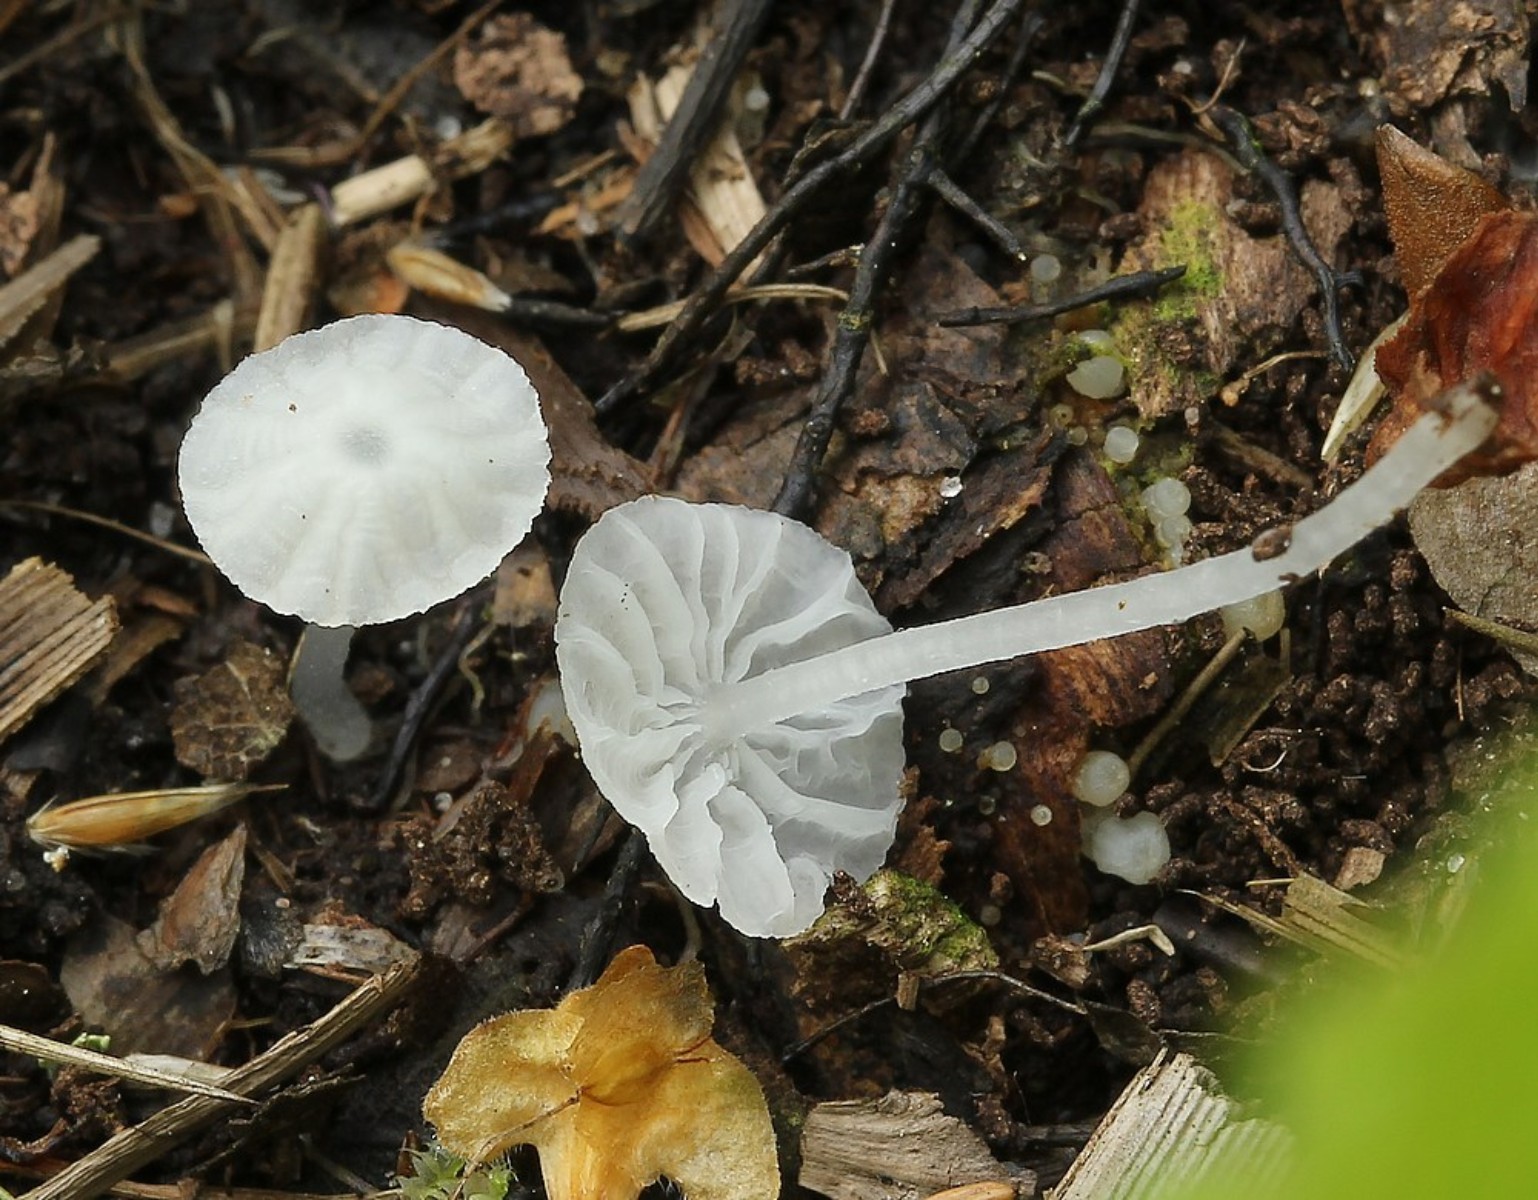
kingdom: Fungi
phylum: Basidiomycota
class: Agaricomycetes
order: Agaricales
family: Tricholomataceae
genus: Delicatula
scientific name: Delicatula integrella
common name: slørhuesvamp
